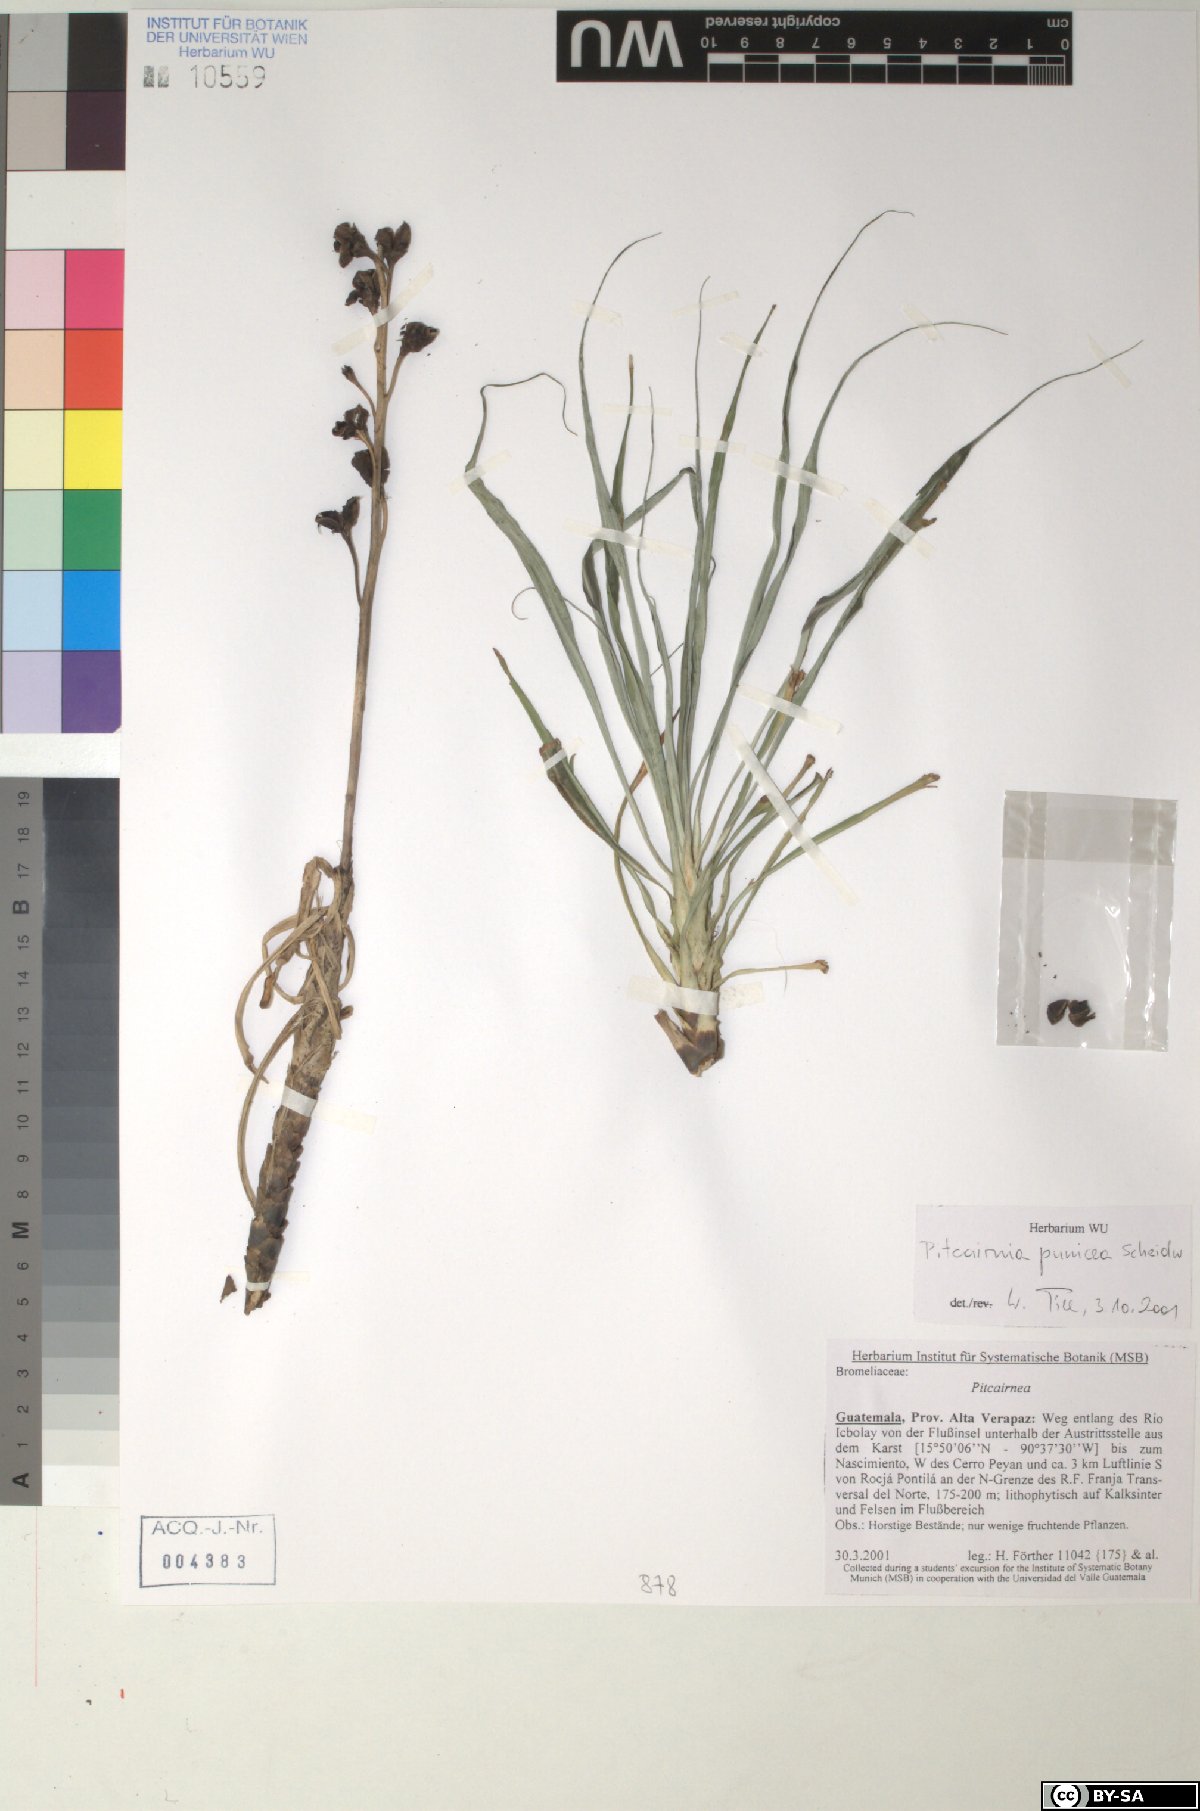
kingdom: Plantae
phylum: Tracheophyta
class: Liliopsida
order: Poales
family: Bromeliaceae
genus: Pitcairnia
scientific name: Pitcairnia punicea
